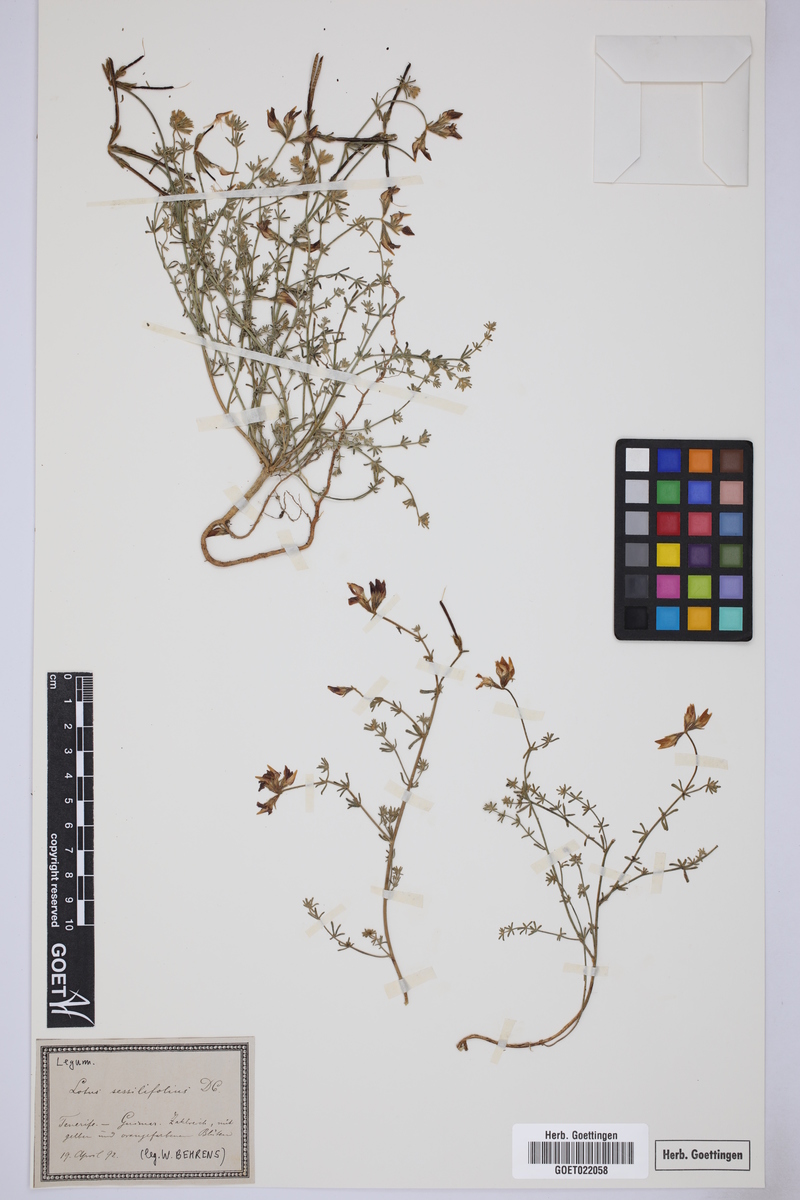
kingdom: Plantae
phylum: Tracheophyta
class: Magnoliopsida
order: Fabales
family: Fabaceae
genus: Lotus
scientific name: Lotus sessilifolius
